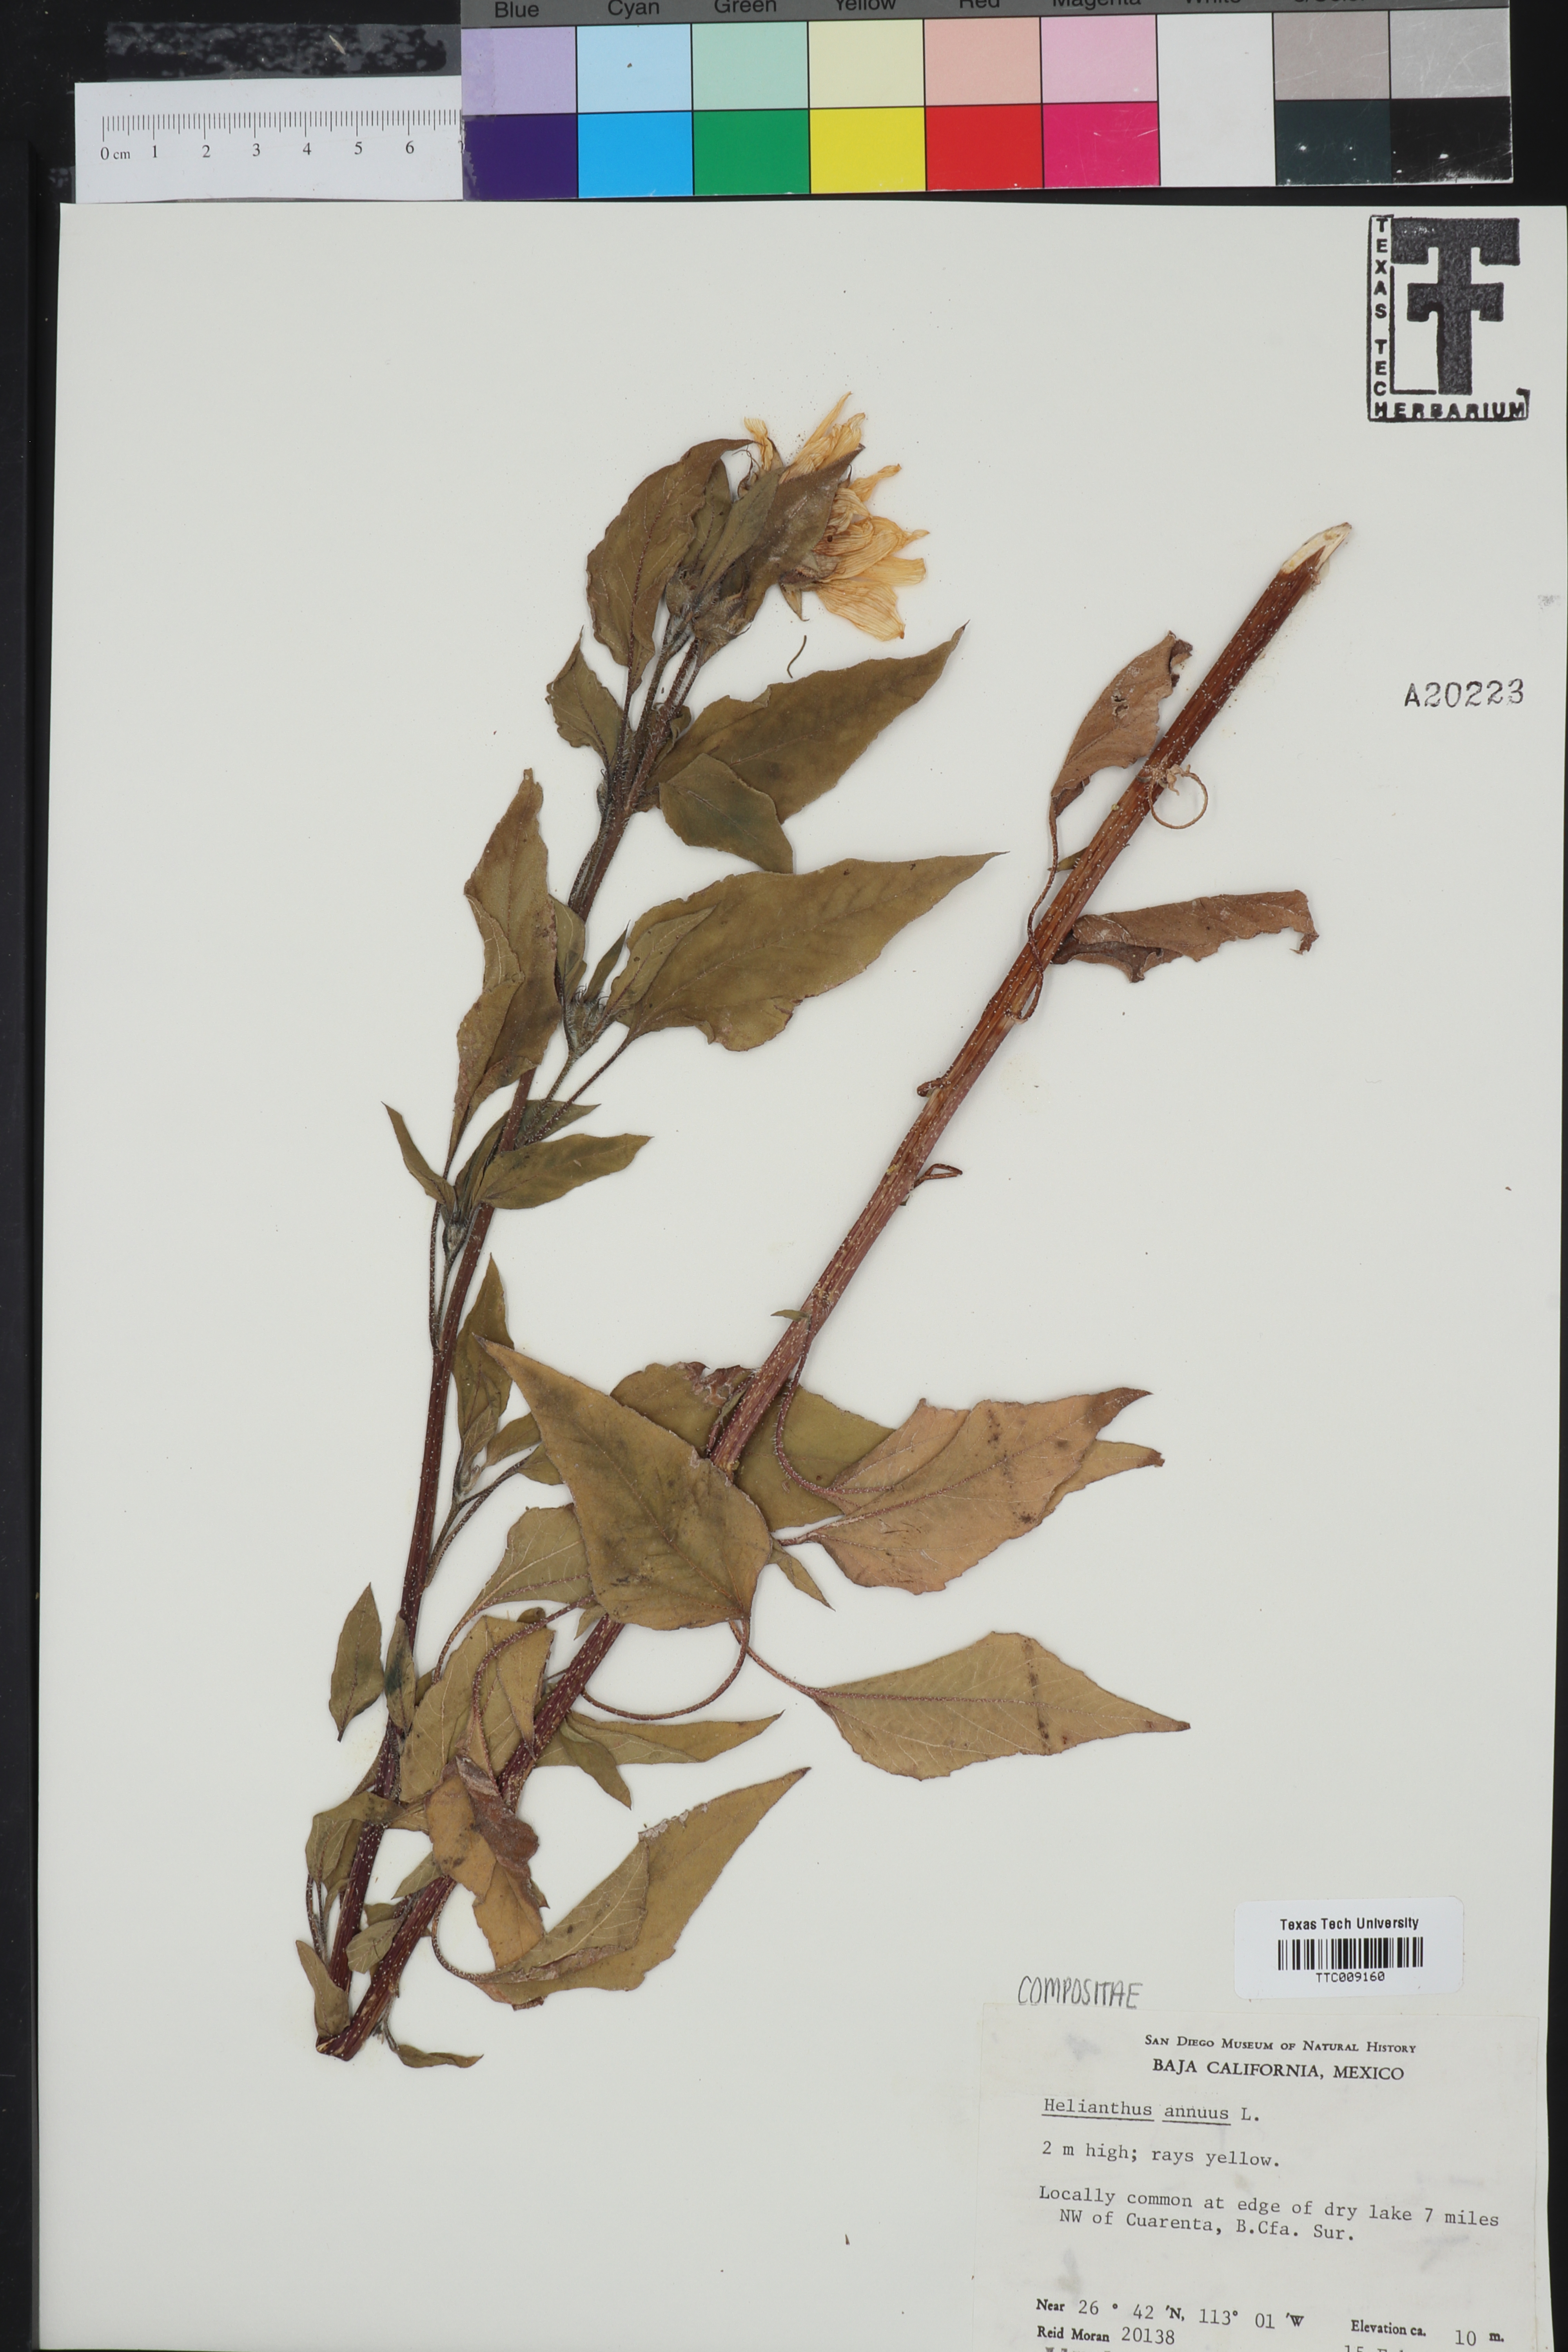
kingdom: Plantae
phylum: Tracheophyta
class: Magnoliopsida
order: Asterales
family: Asteraceae
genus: Helianthus
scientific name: Helianthus annuus
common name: Sunflower
